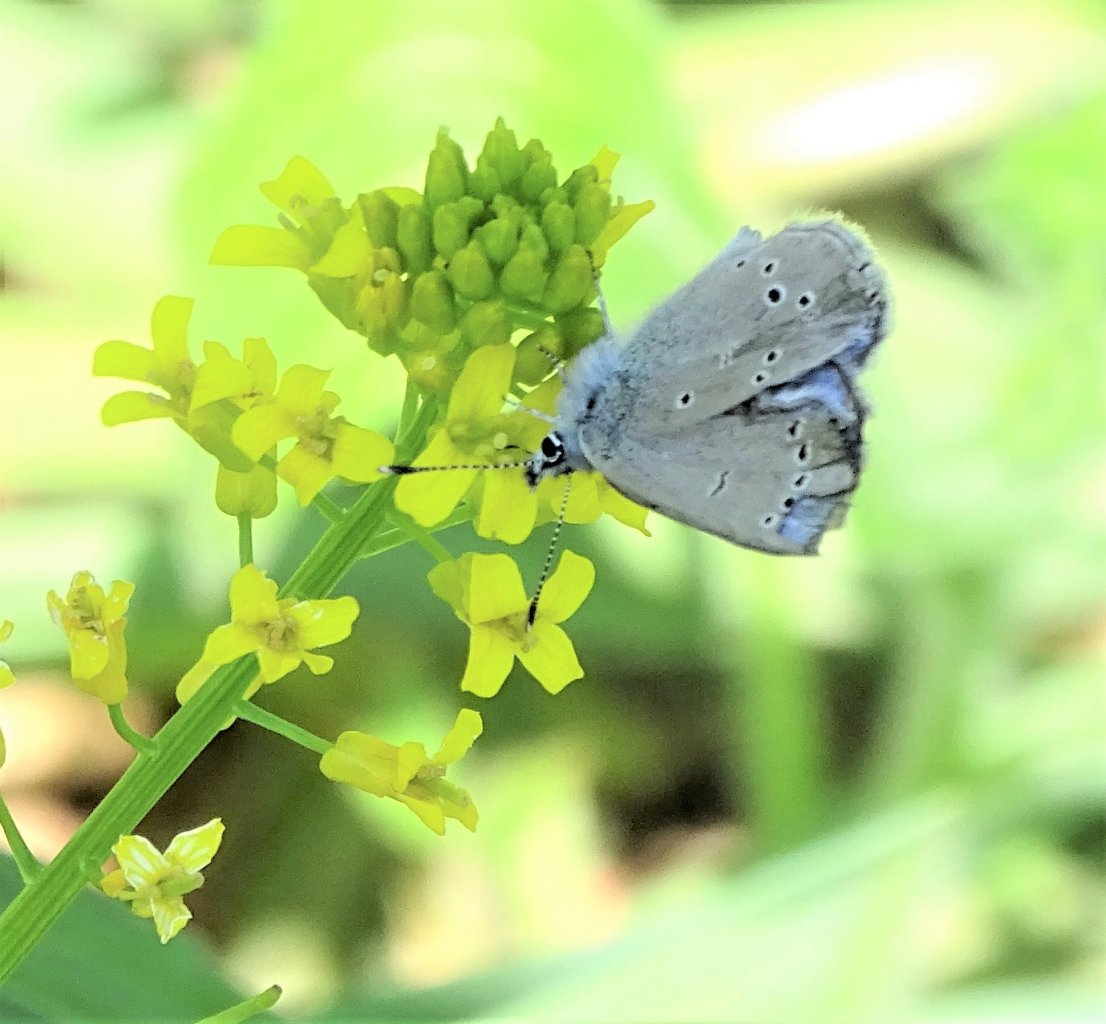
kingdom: Animalia
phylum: Arthropoda
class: Insecta
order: Lepidoptera
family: Lycaenidae
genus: Glaucopsyche
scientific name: Glaucopsyche lygdamus
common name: Silvery Blue
